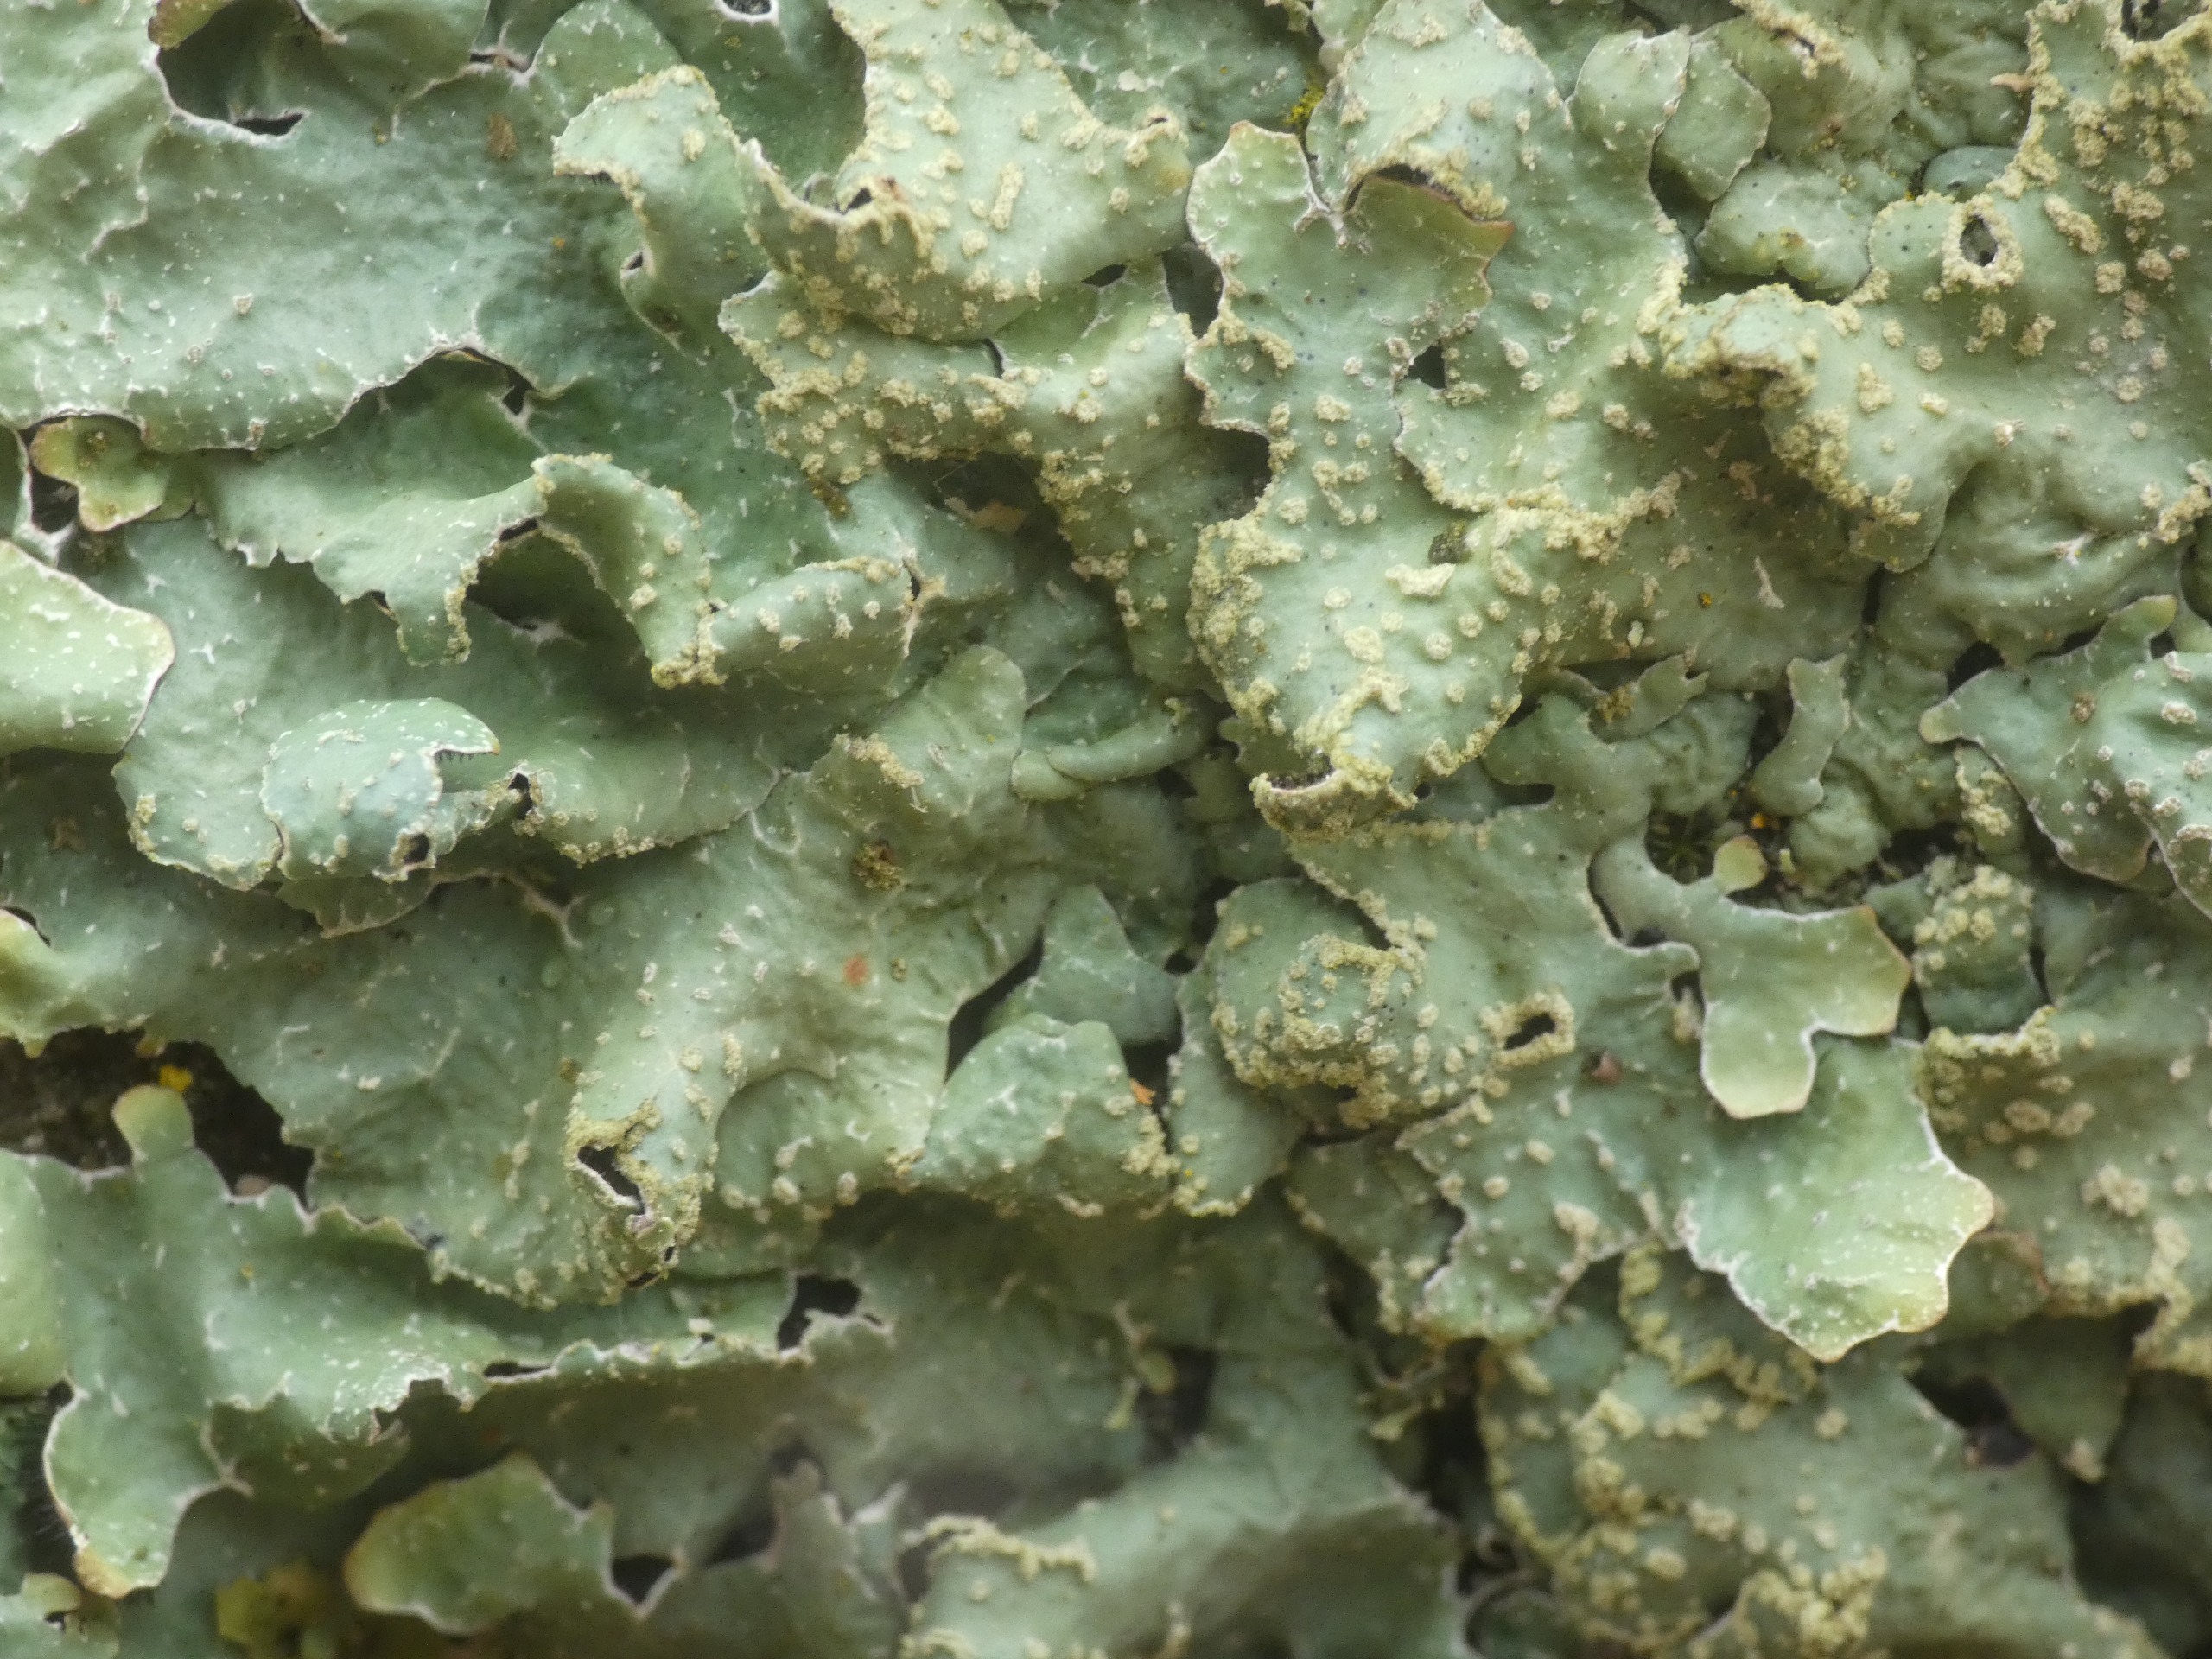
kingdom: Fungi
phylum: Ascomycota
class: Lecanoromycetes
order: Lecanorales
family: Parmeliaceae
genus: Parmelia
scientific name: Parmelia sulcata
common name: Rynket skållav
